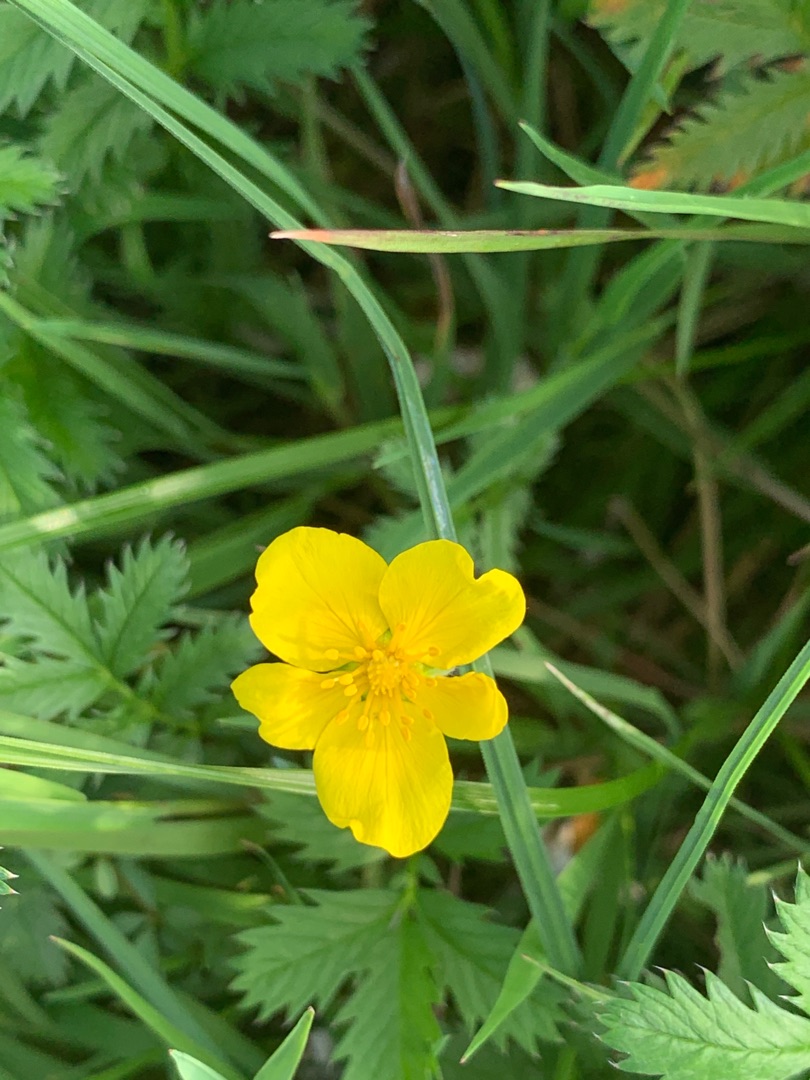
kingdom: Plantae
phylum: Tracheophyta
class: Magnoliopsida
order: Rosales
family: Rosaceae
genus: Argentina
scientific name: Argentina anserina
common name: Gåsepotentil
